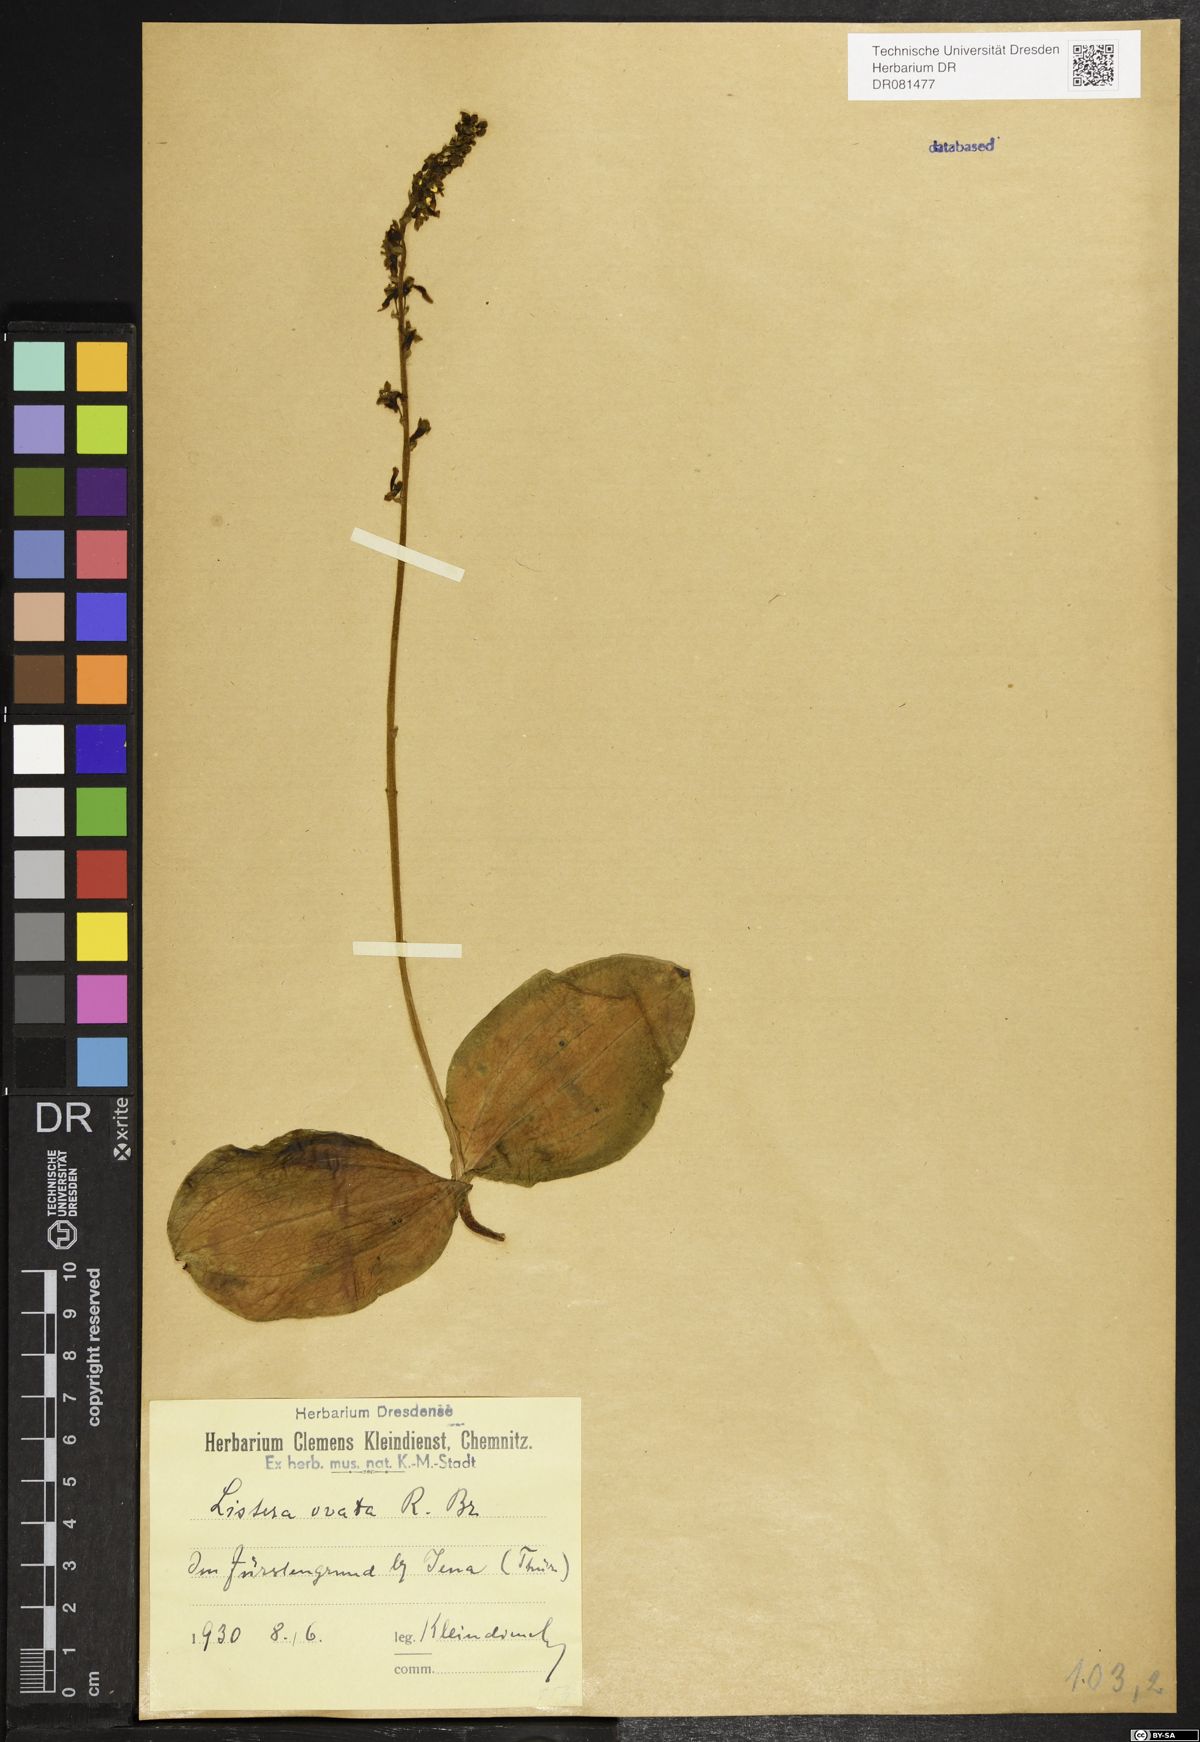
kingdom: Plantae
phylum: Tracheophyta
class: Liliopsida
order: Asparagales
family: Orchidaceae
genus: Neottia
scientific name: Neottia ovata
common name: Common twayblade
